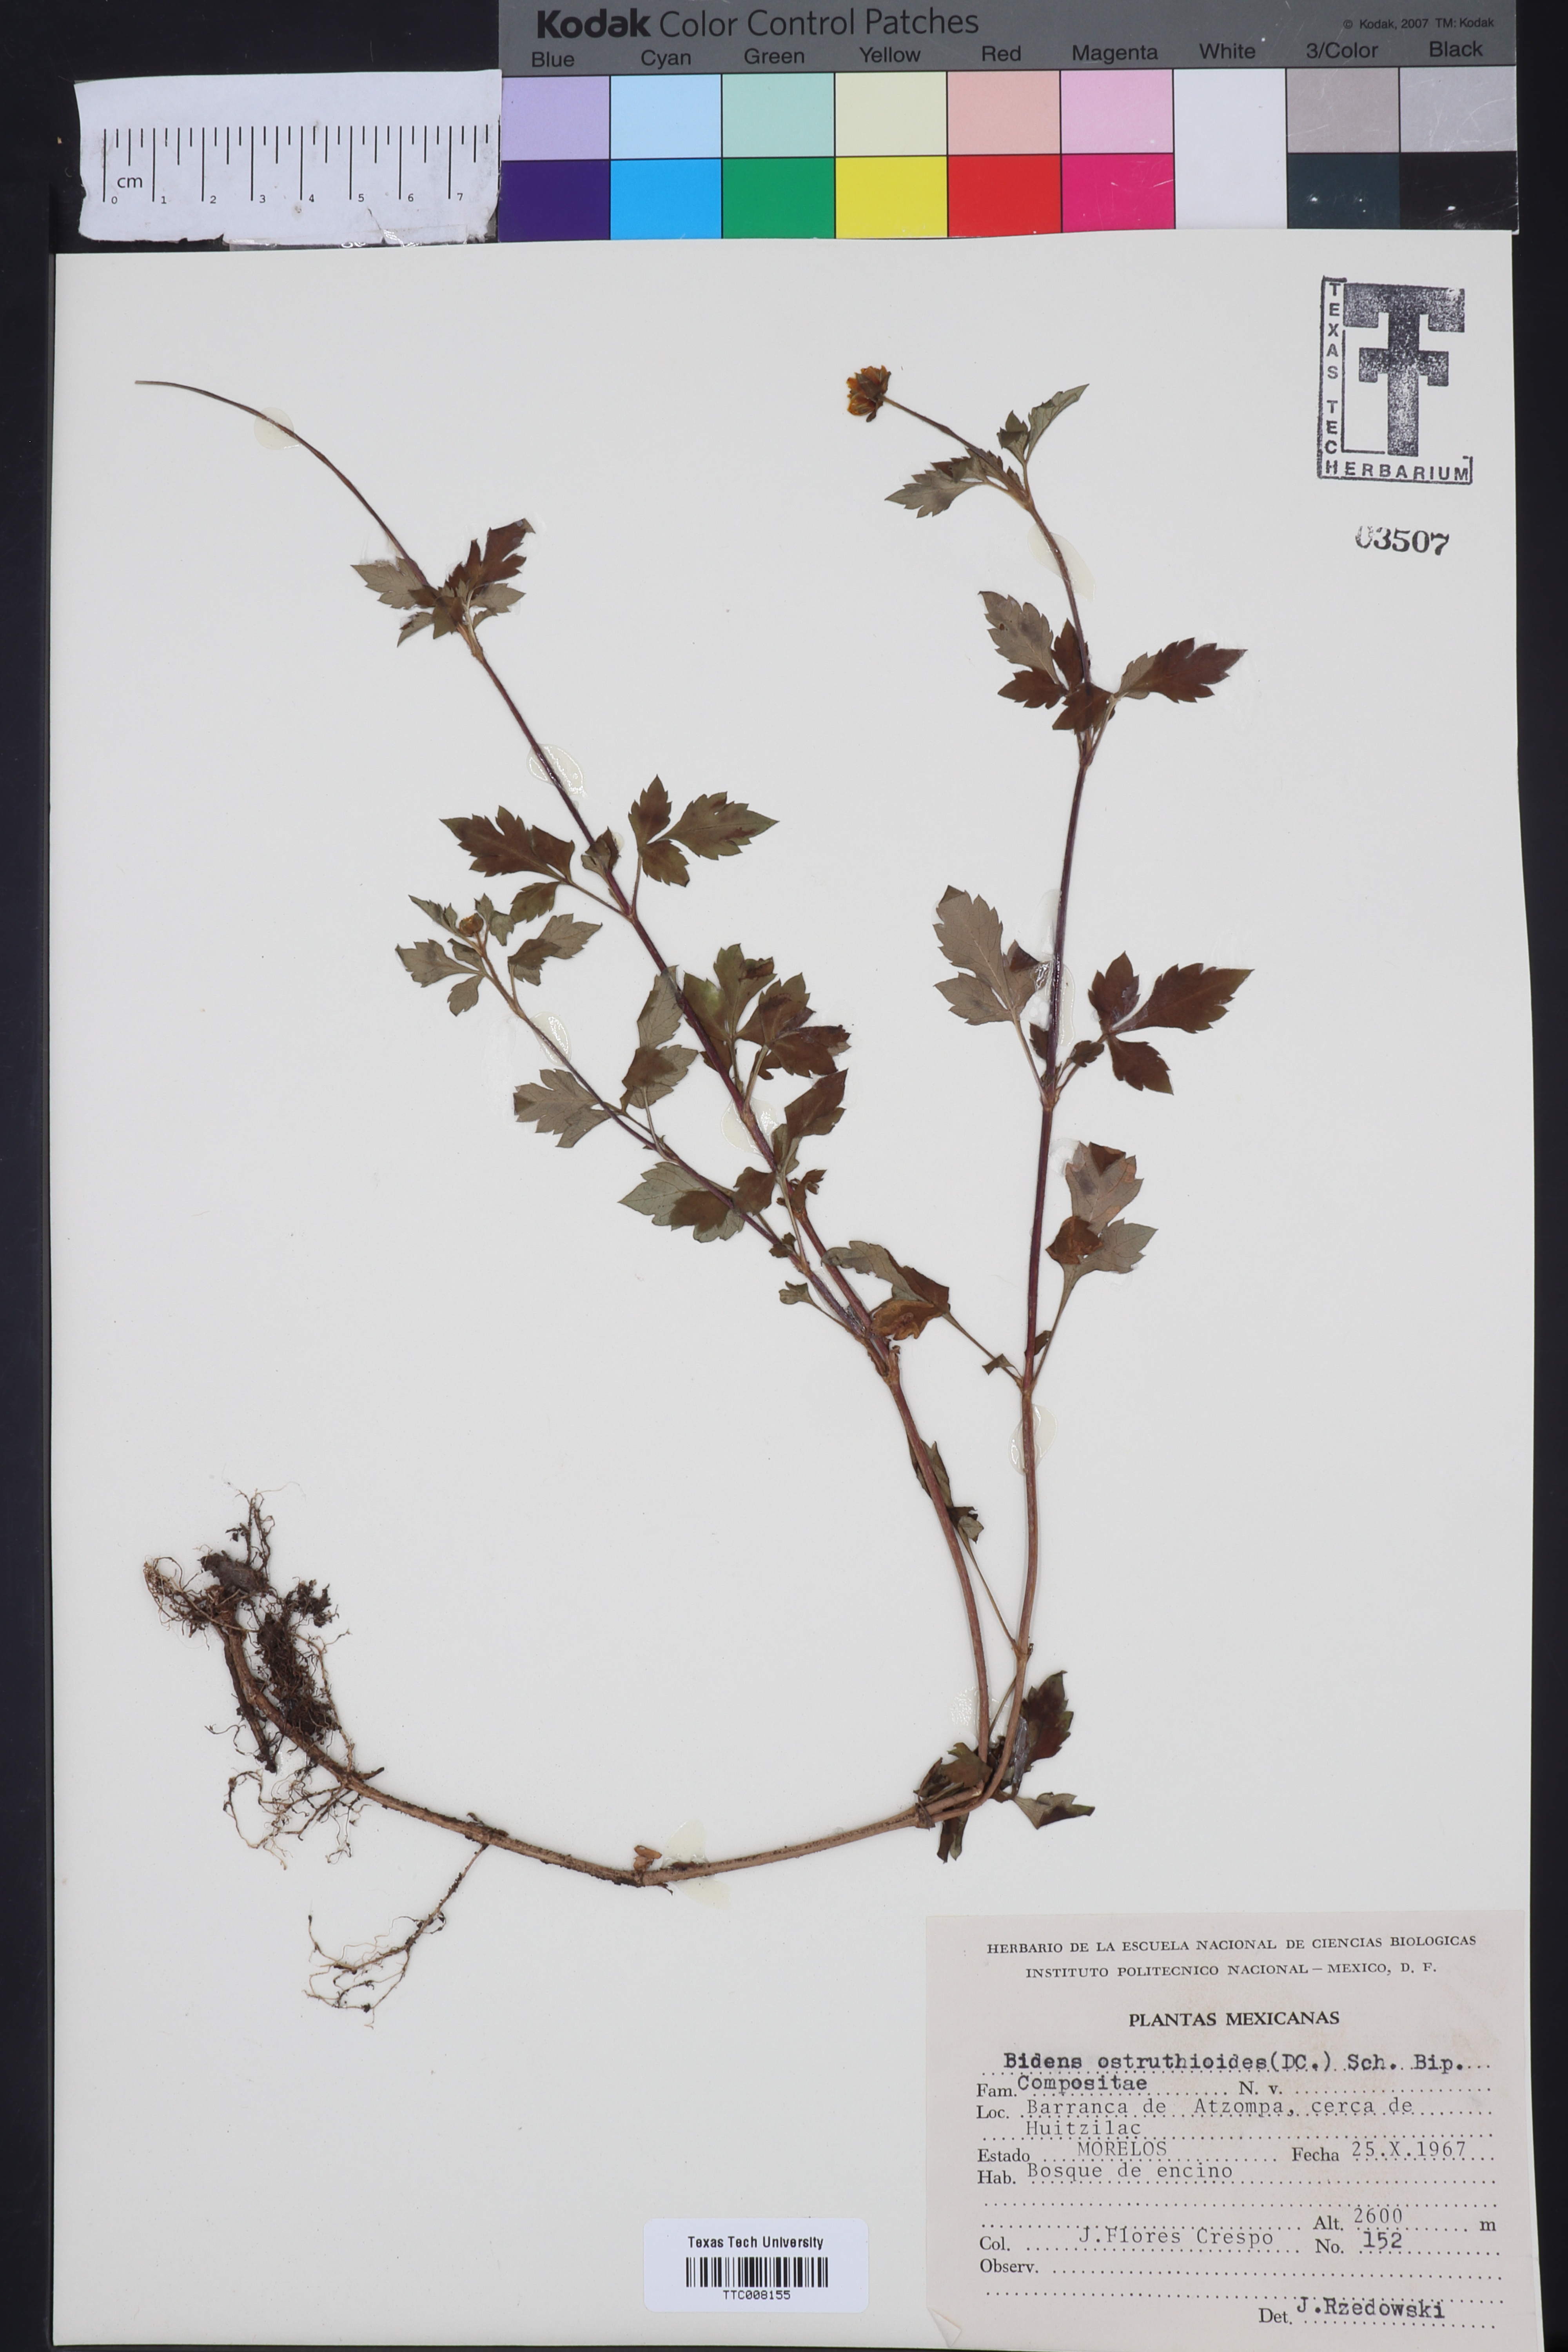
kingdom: Plantae
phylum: Tracheophyta
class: Magnoliopsida
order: Asterales
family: Asteraceae
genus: Bidens
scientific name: Bidens ostruthioides
